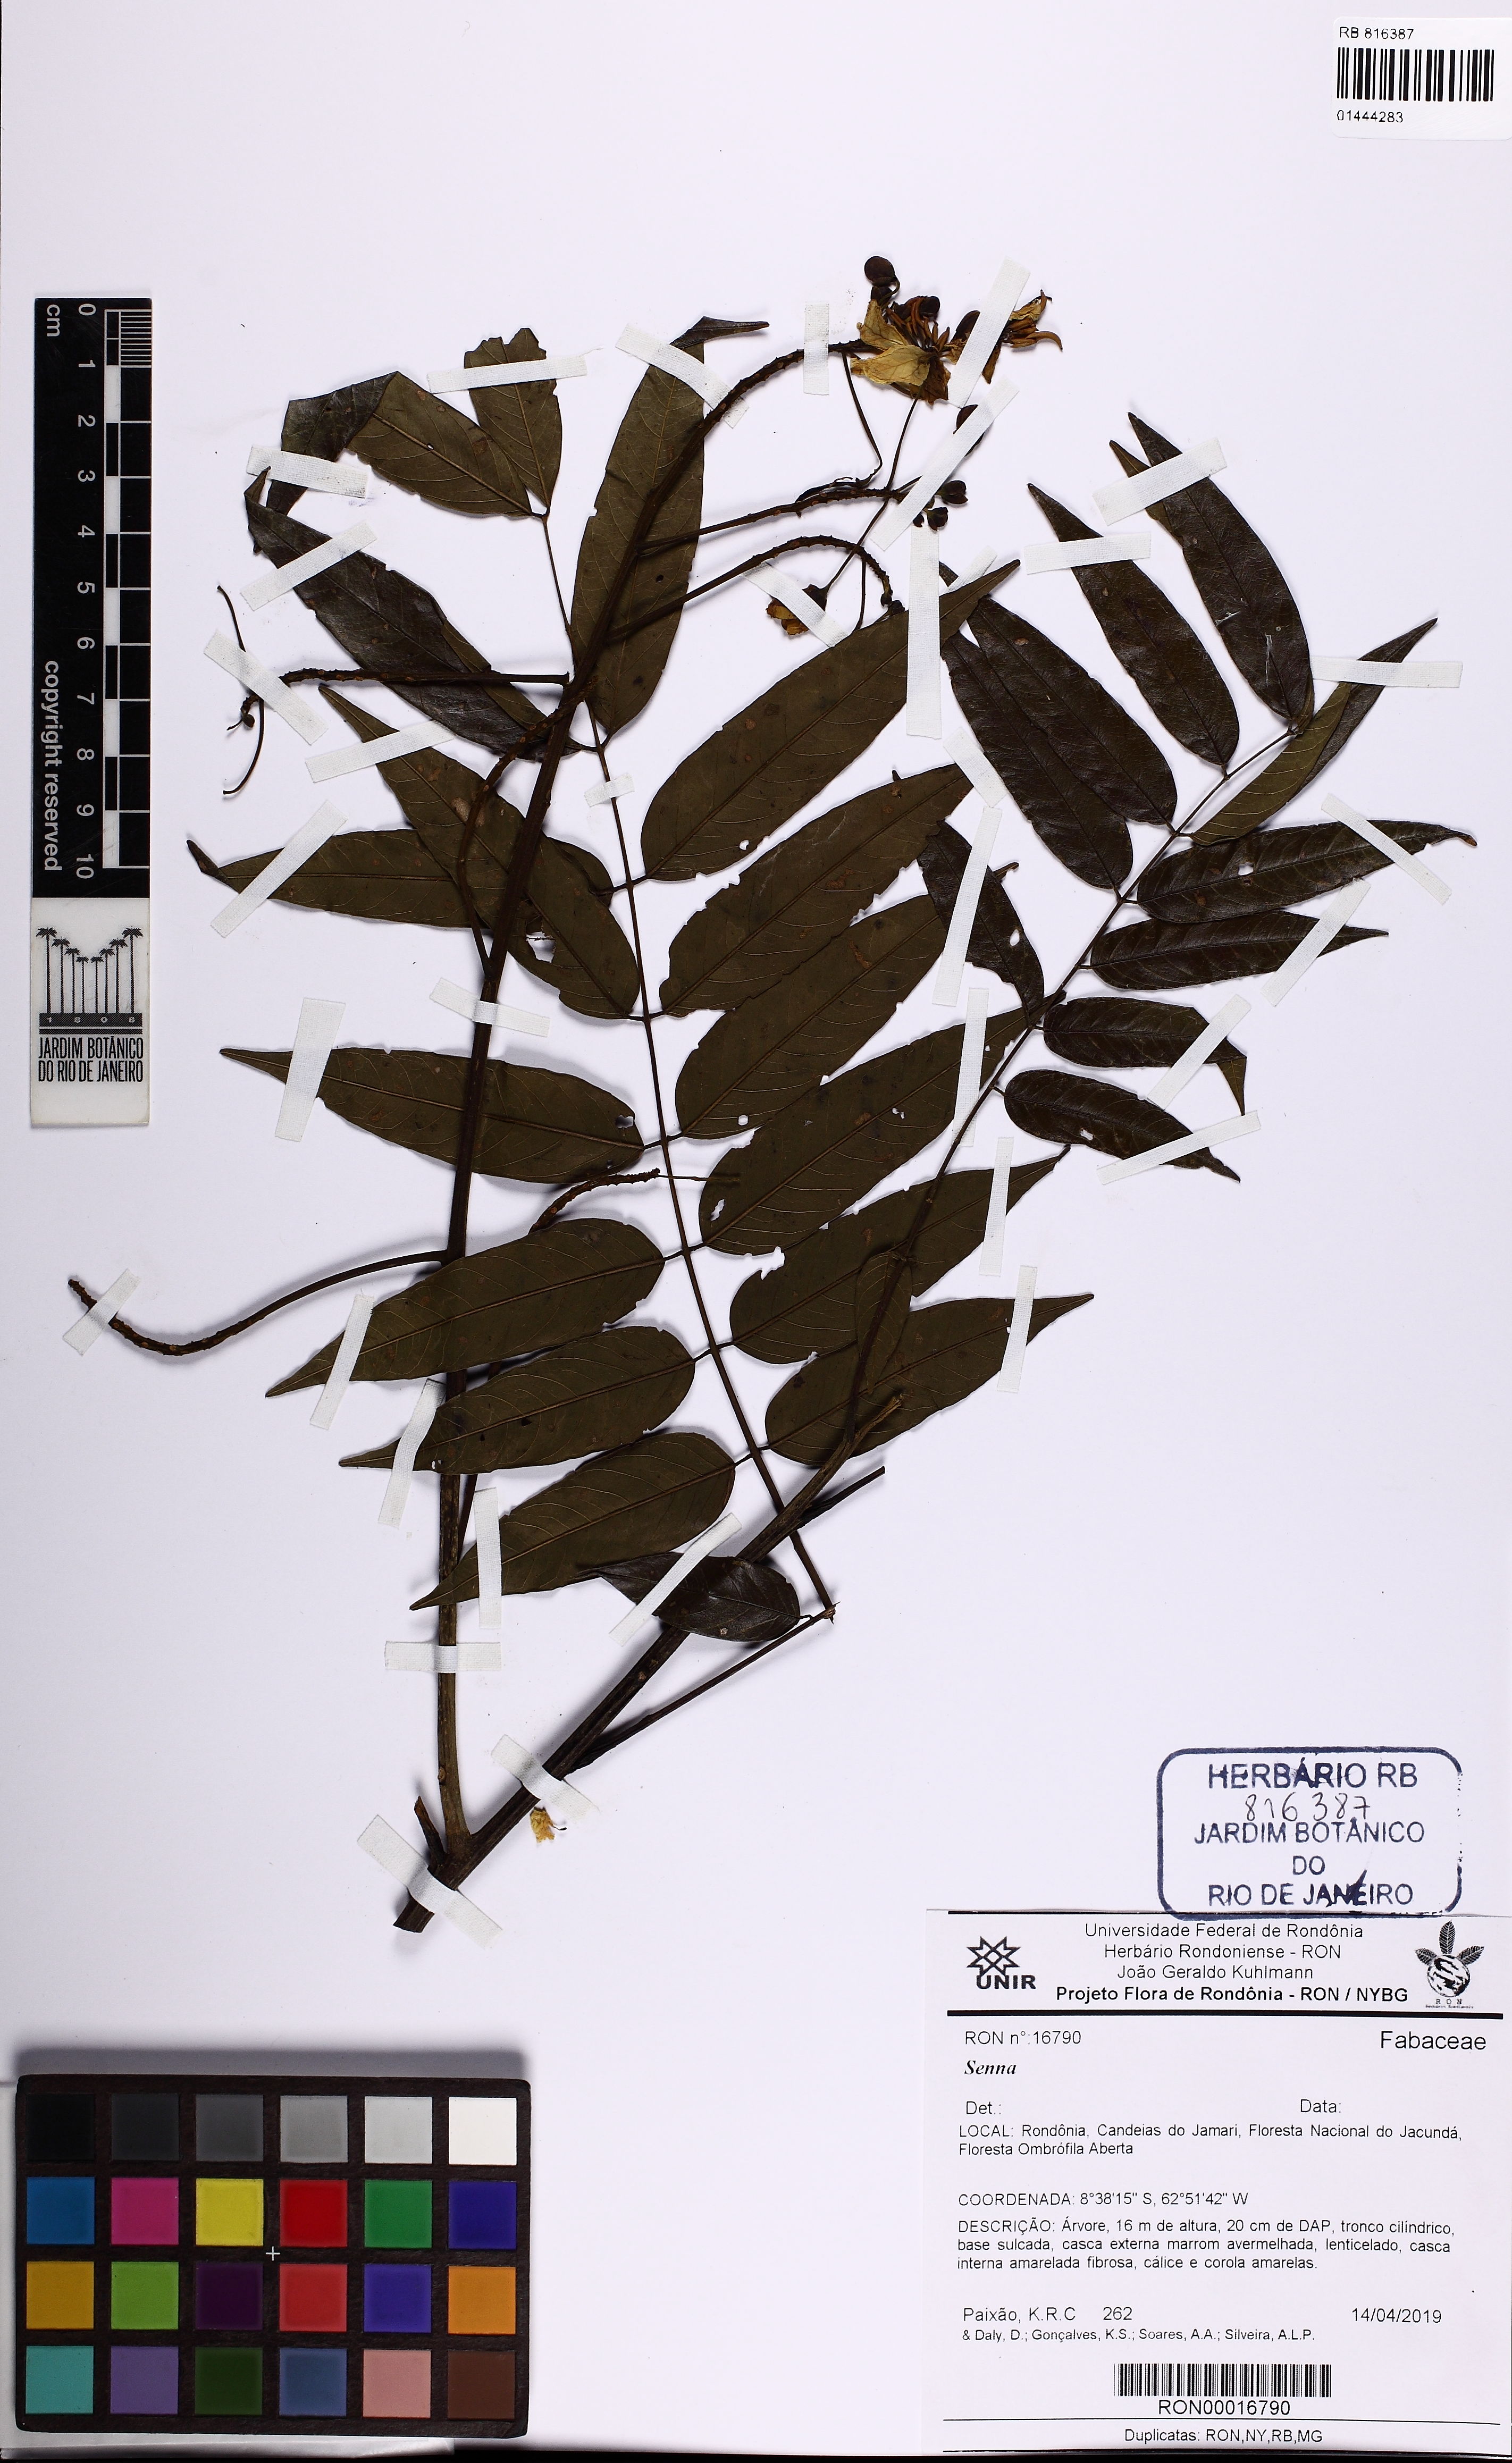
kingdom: Plantae
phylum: Tracheophyta
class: Magnoliopsida
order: Fabales
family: Fabaceae
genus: Senna
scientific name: Senna
